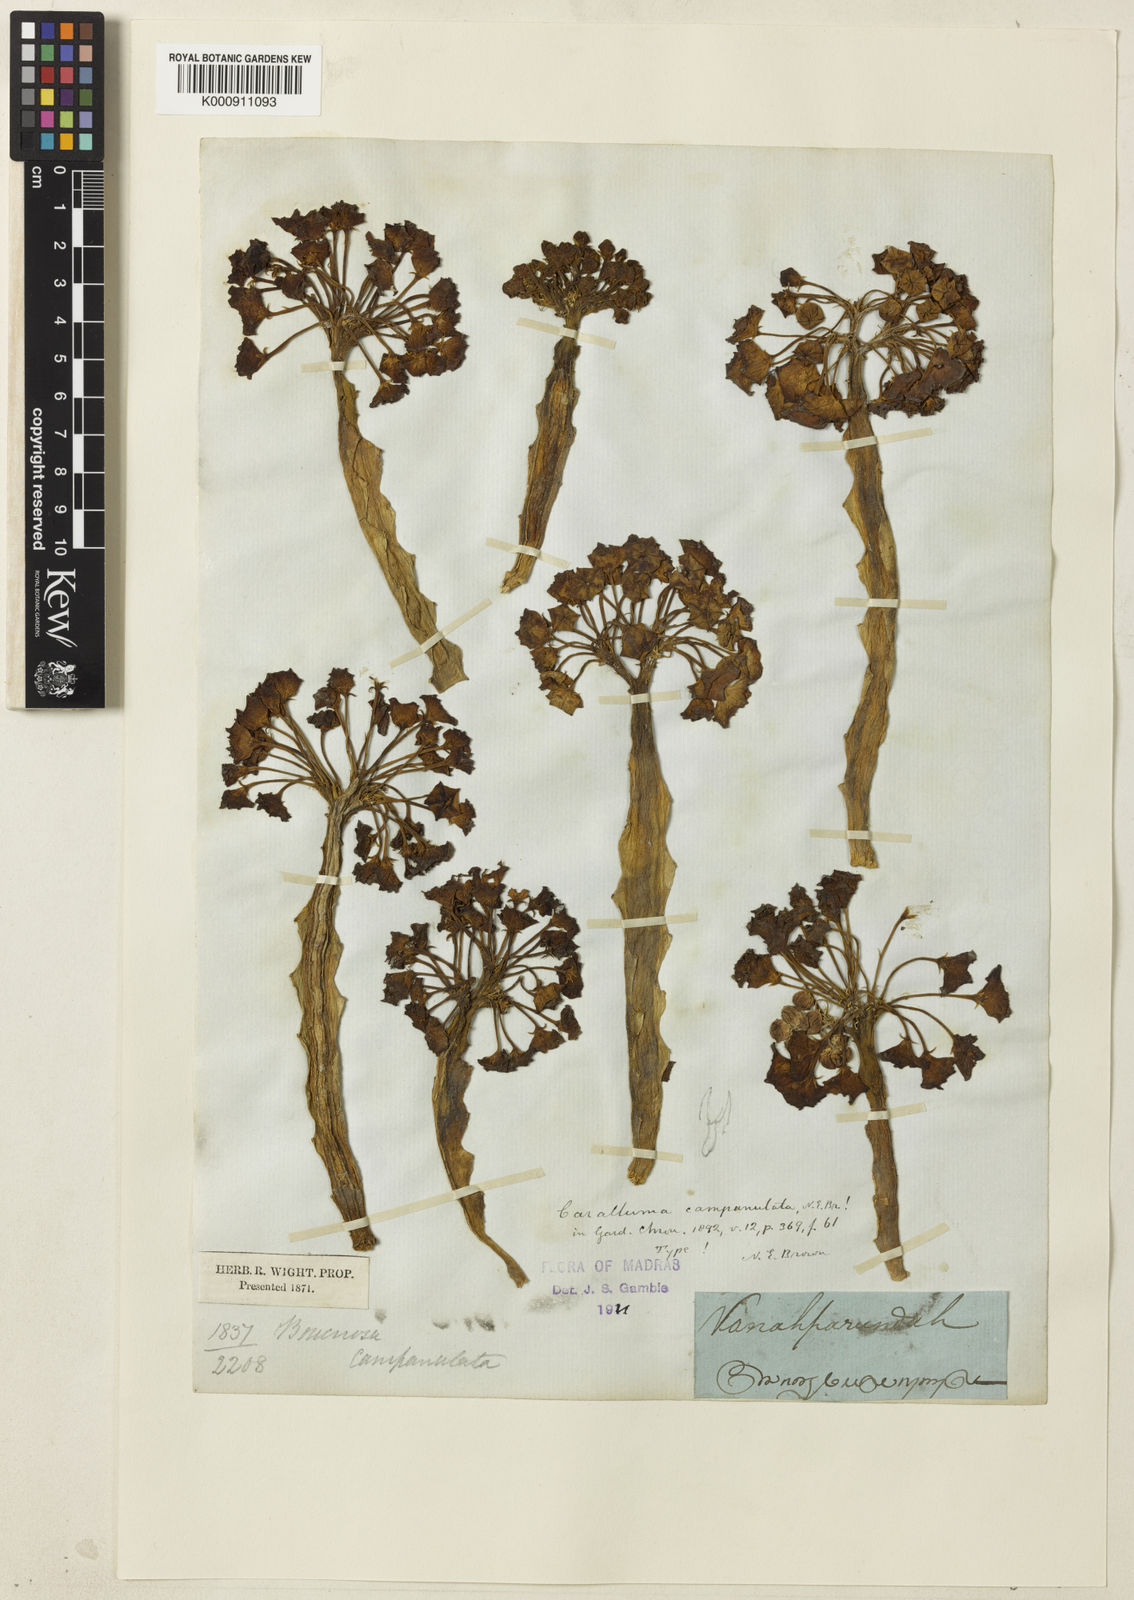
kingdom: Plantae
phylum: Tracheophyta
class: Magnoliopsida
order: Gentianales
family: Apocynaceae
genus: Ceropegia
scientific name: Ceropegia umbellata
